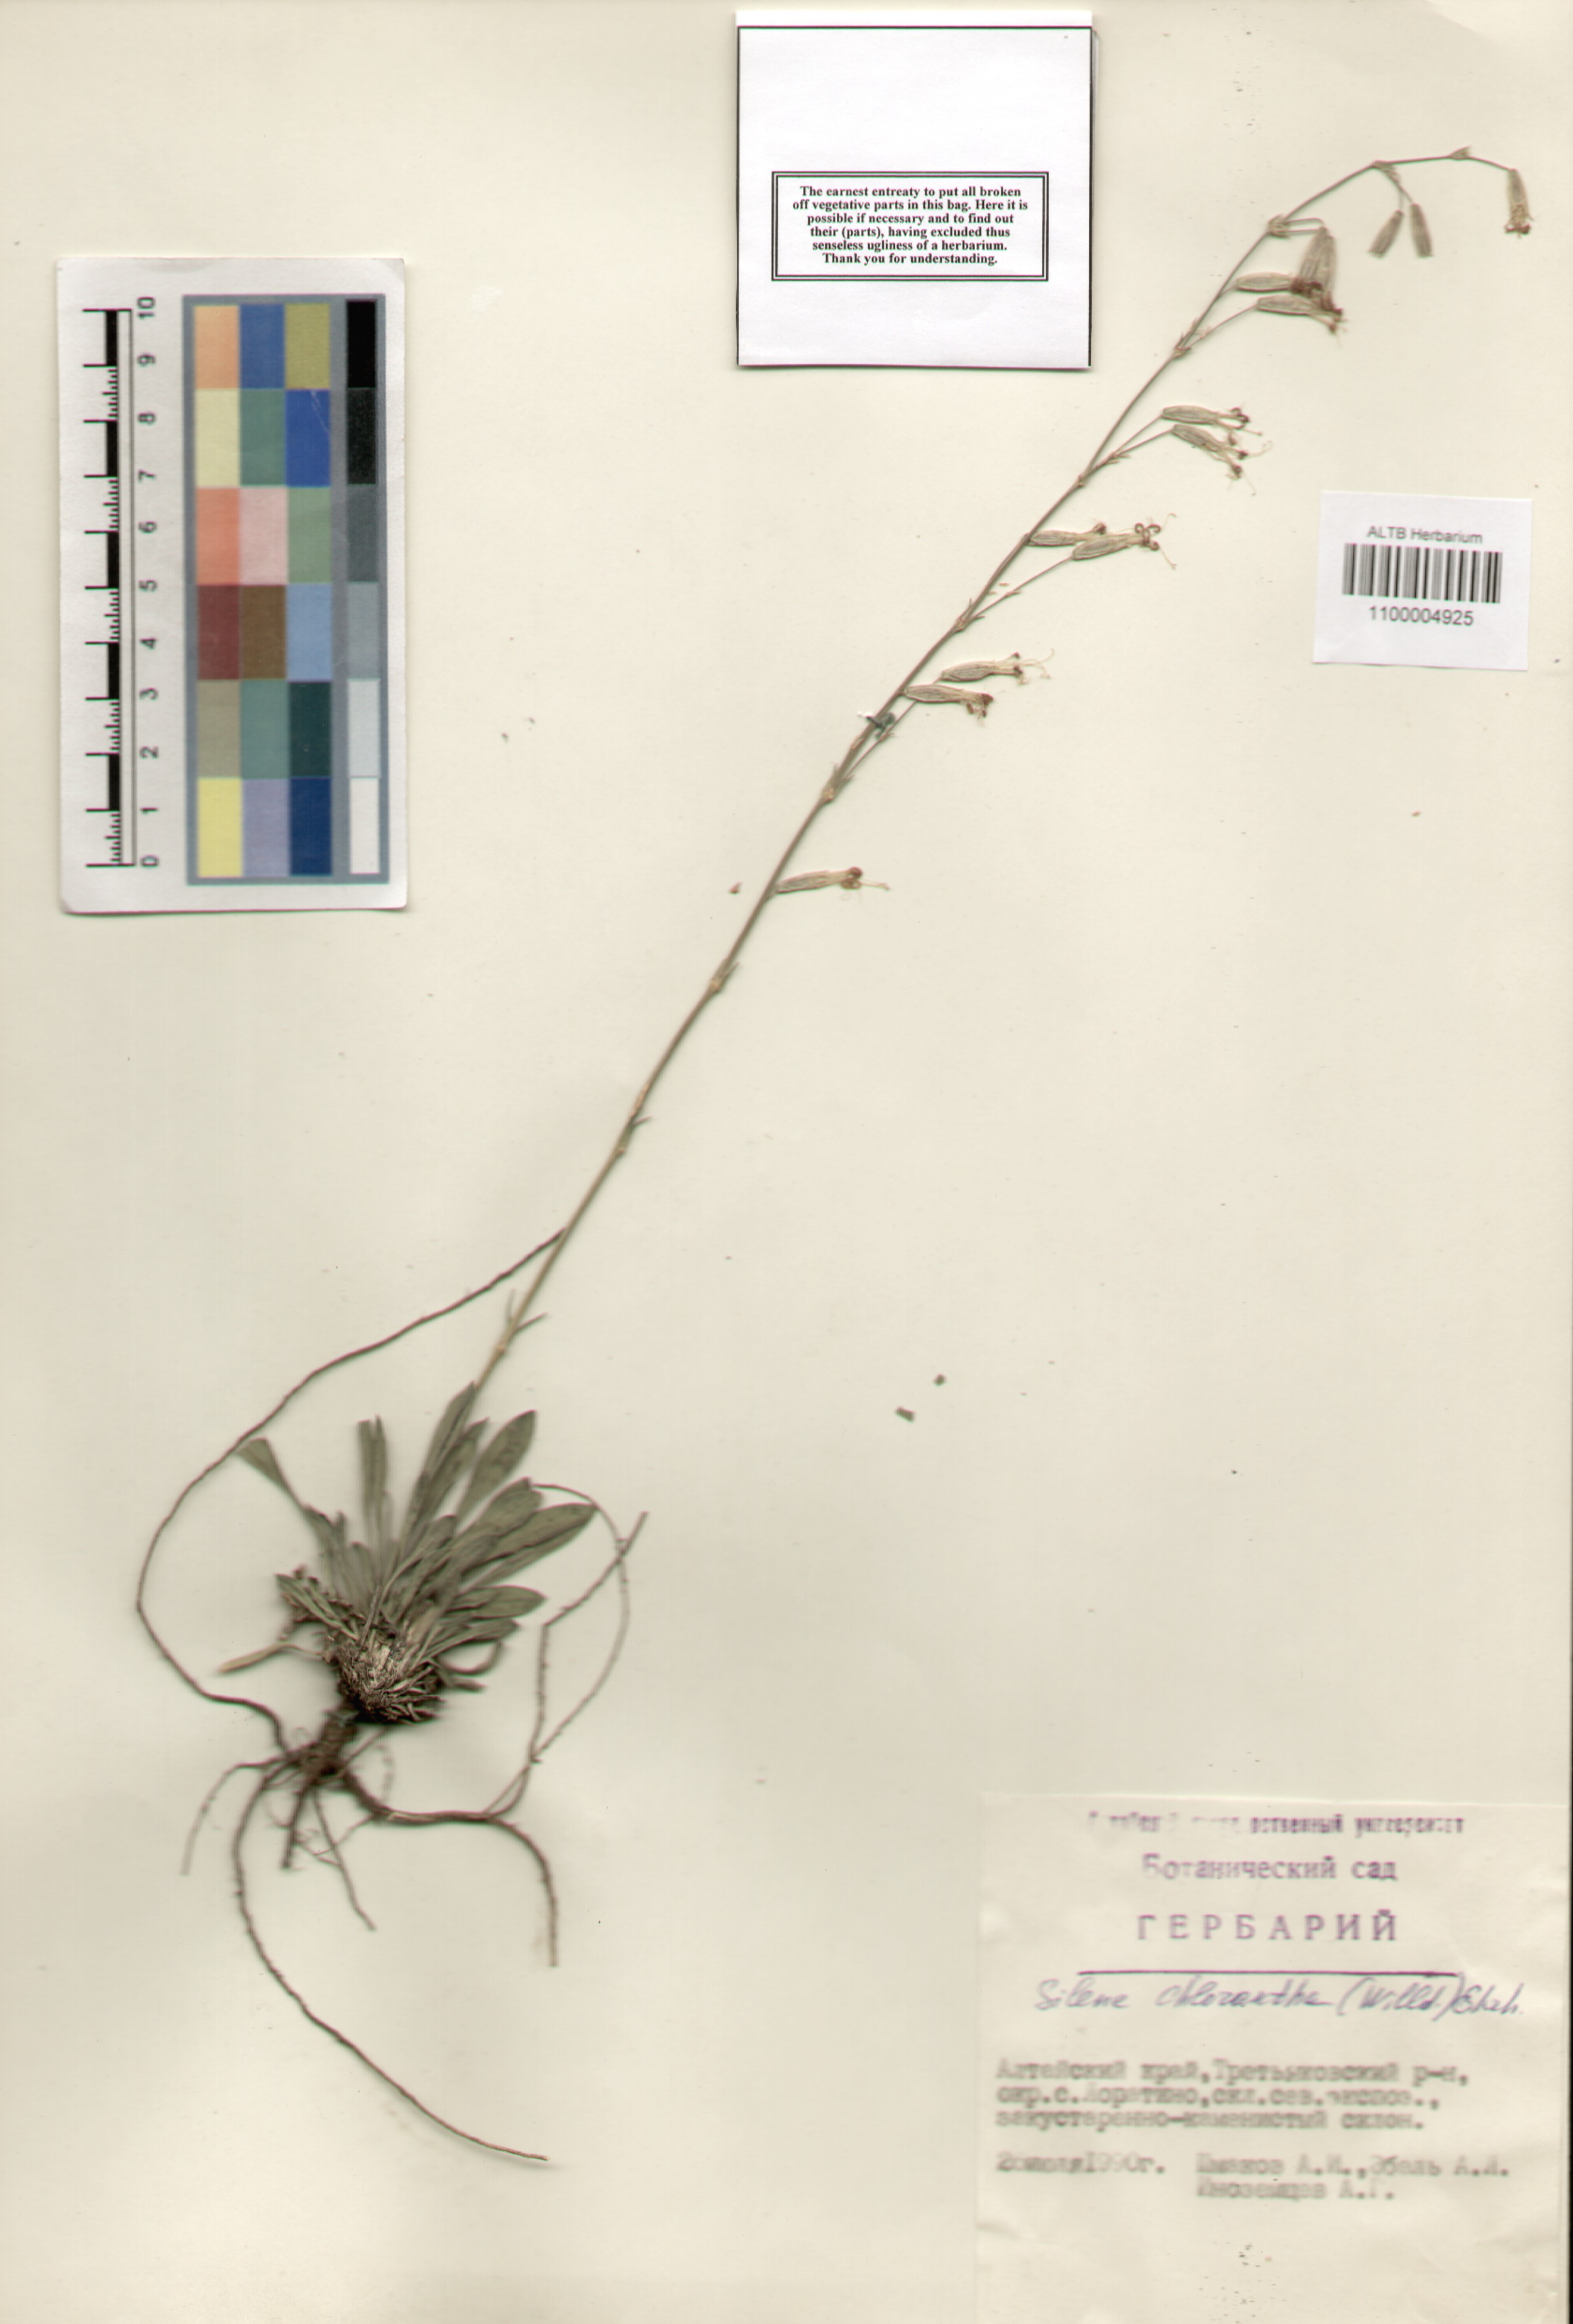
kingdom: Plantae
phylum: Tracheophyta
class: Magnoliopsida
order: Caryophyllales
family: Caryophyllaceae
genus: Silene
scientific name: Silene chlorantha
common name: Yellowgreen catchfly
